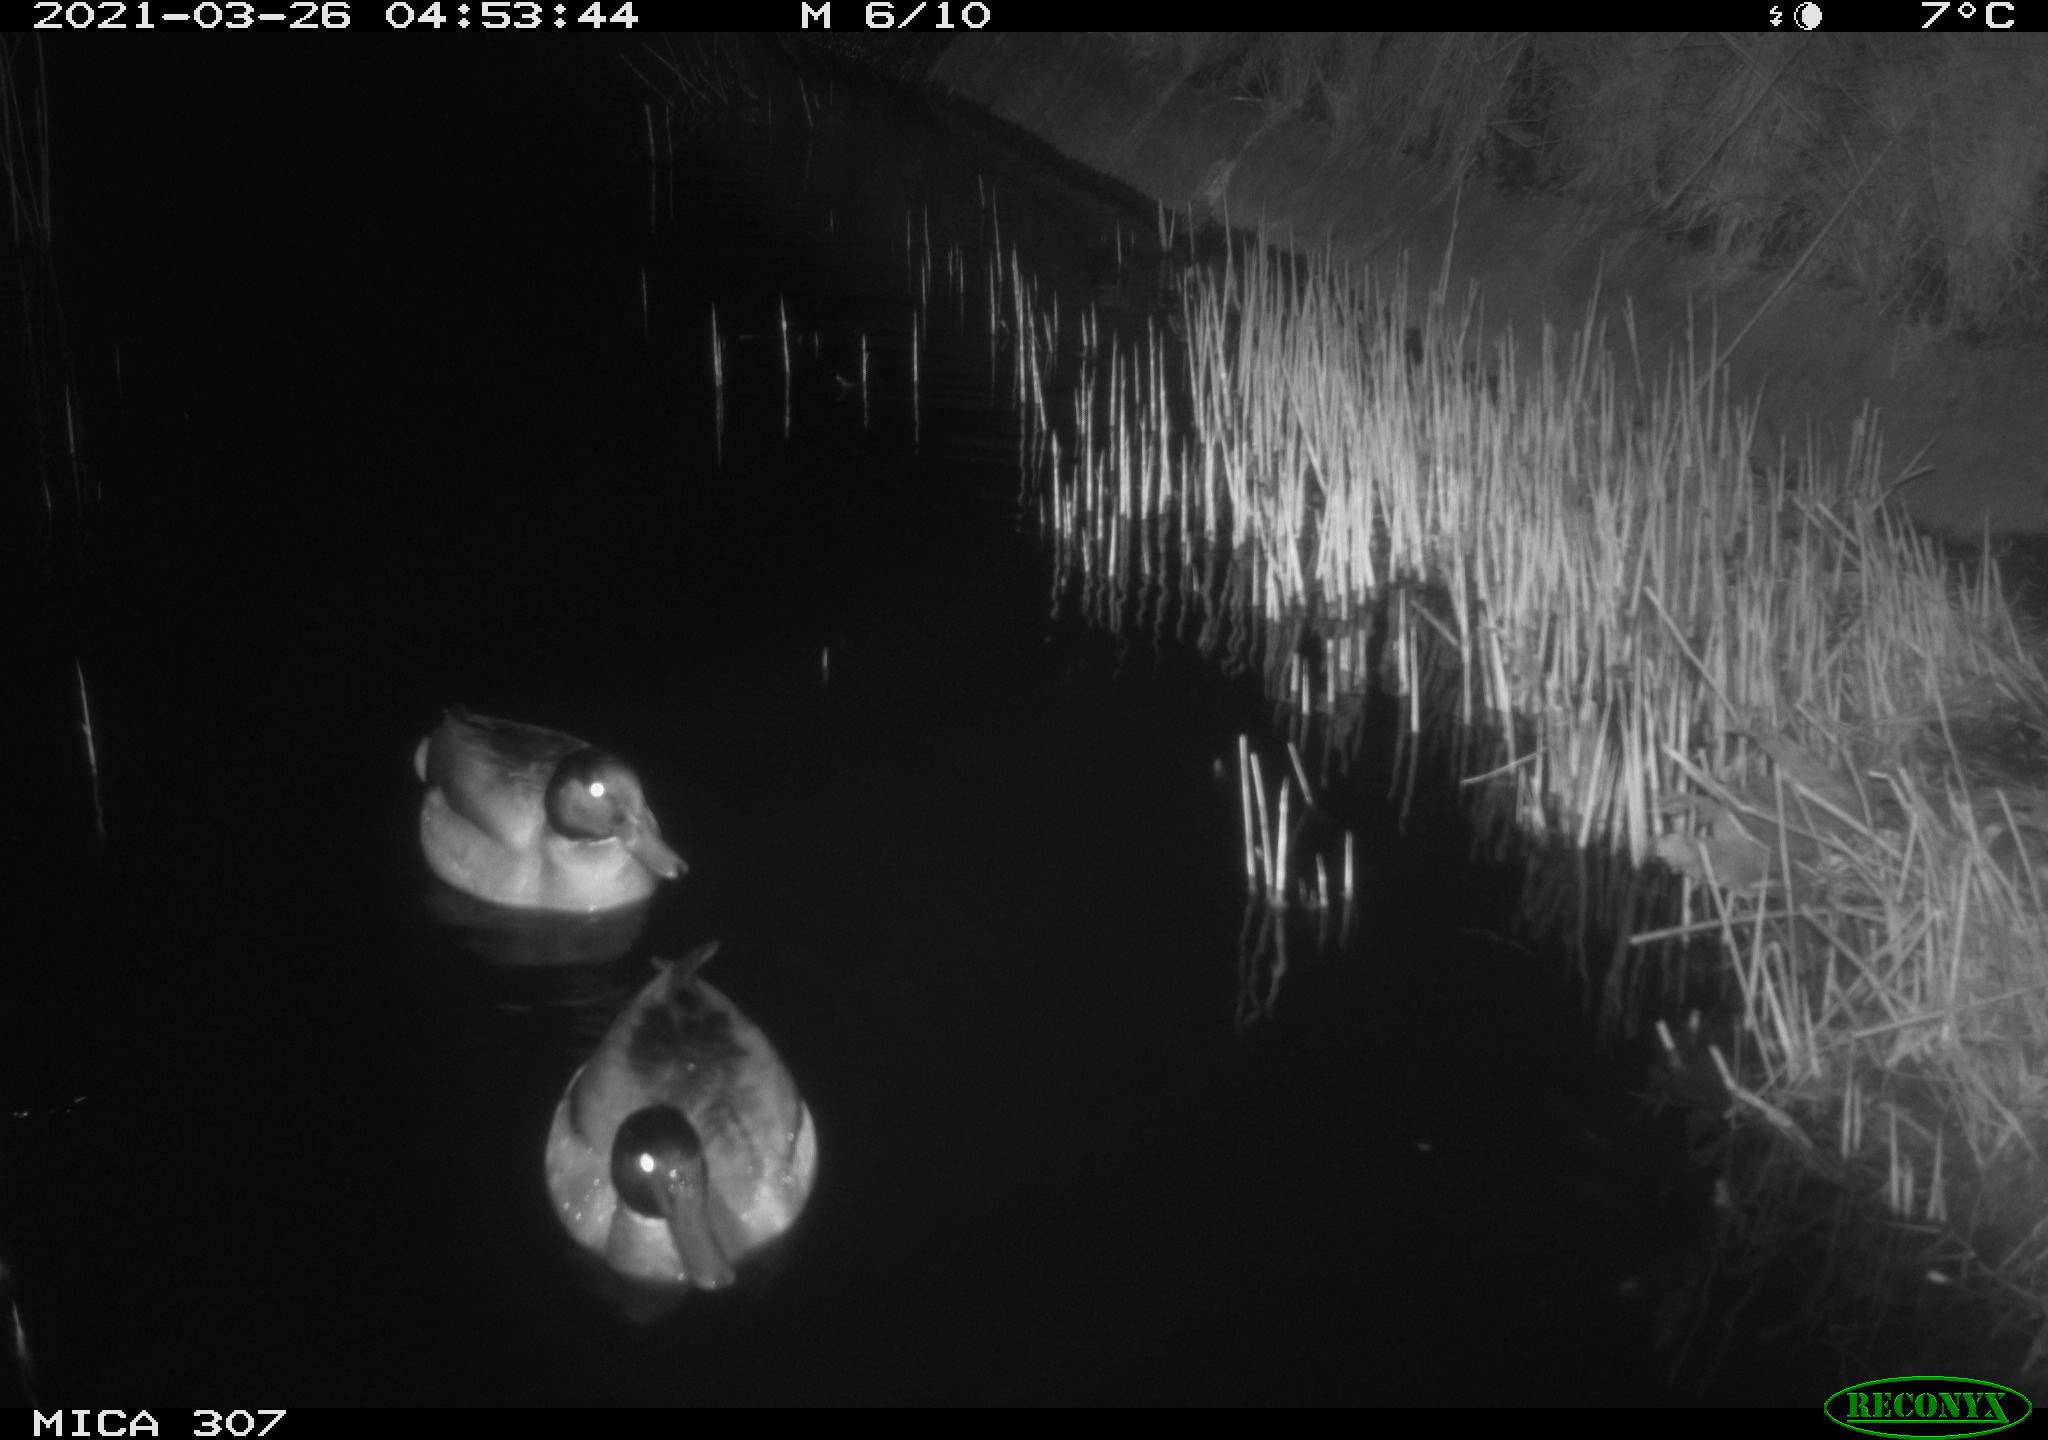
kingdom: Animalia
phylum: Chordata
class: Aves
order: Anseriformes
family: Anatidae
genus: Anas
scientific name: Anas platyrhynchos
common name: Mallard
